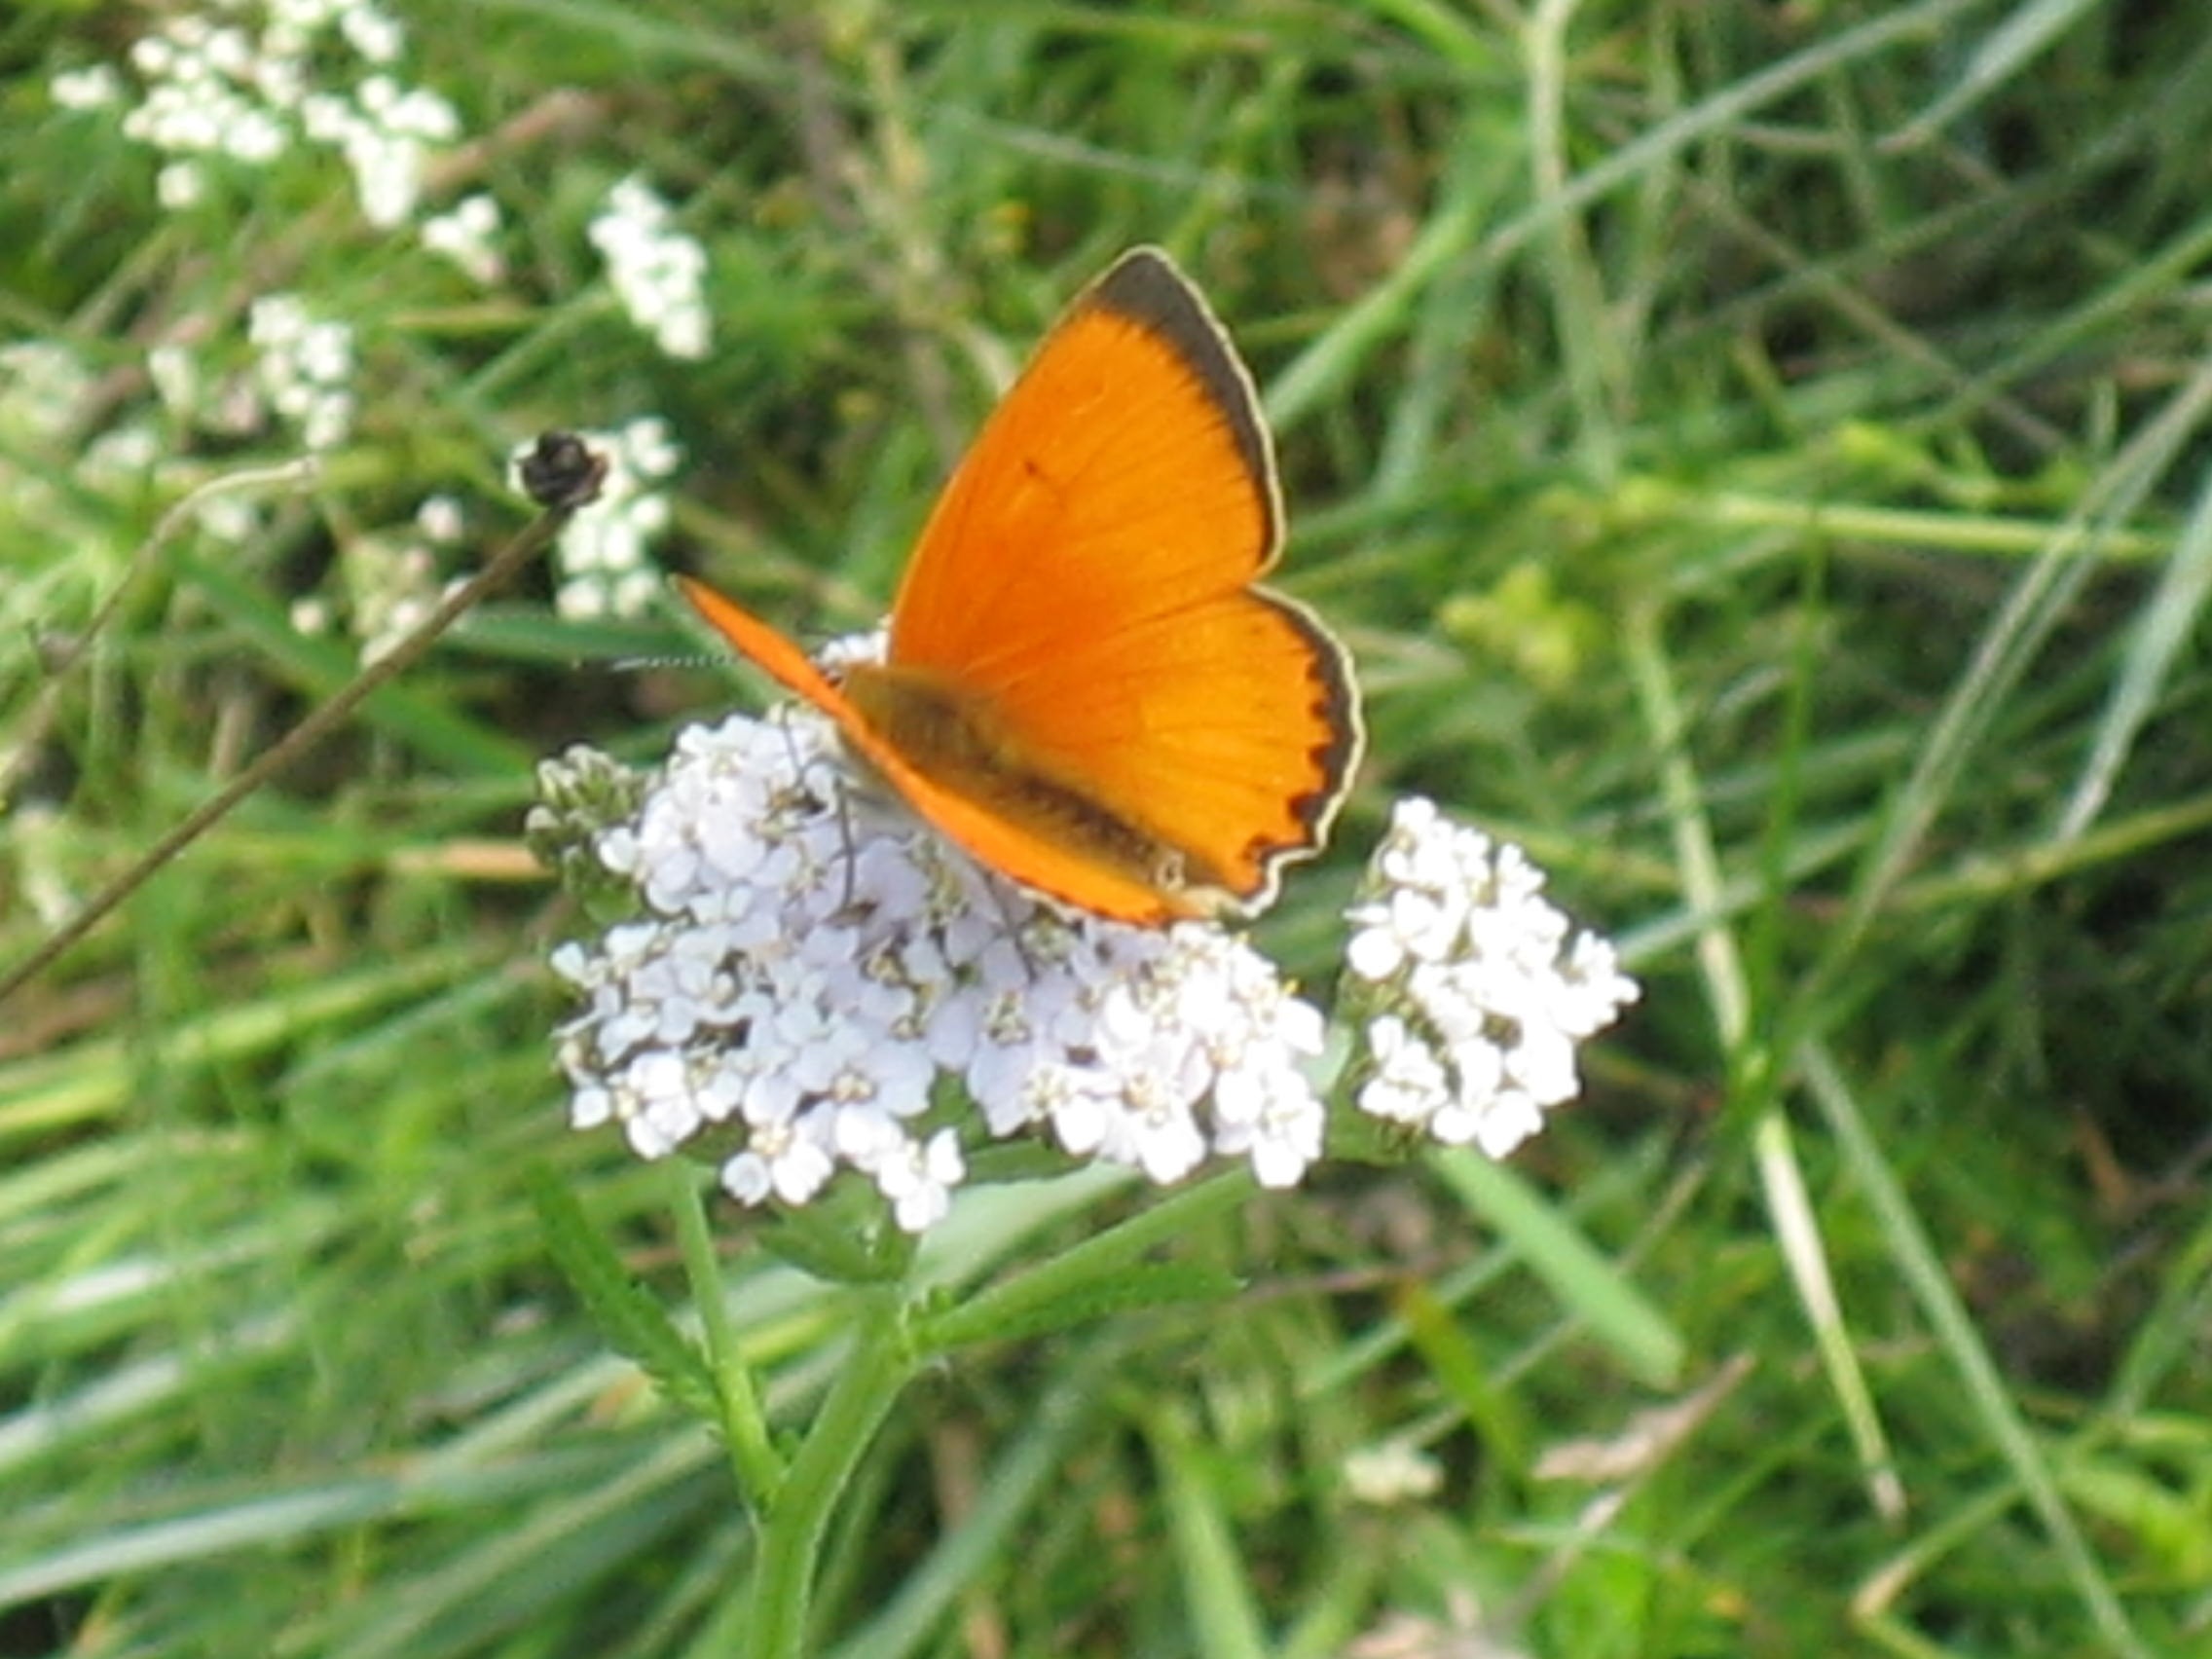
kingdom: Animalia
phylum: Arthropoda
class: Insecta
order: Lepidoptera
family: Lycaenidae
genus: Lycaena
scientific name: Lycaena virgaureae
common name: Dukatsommerfugl
